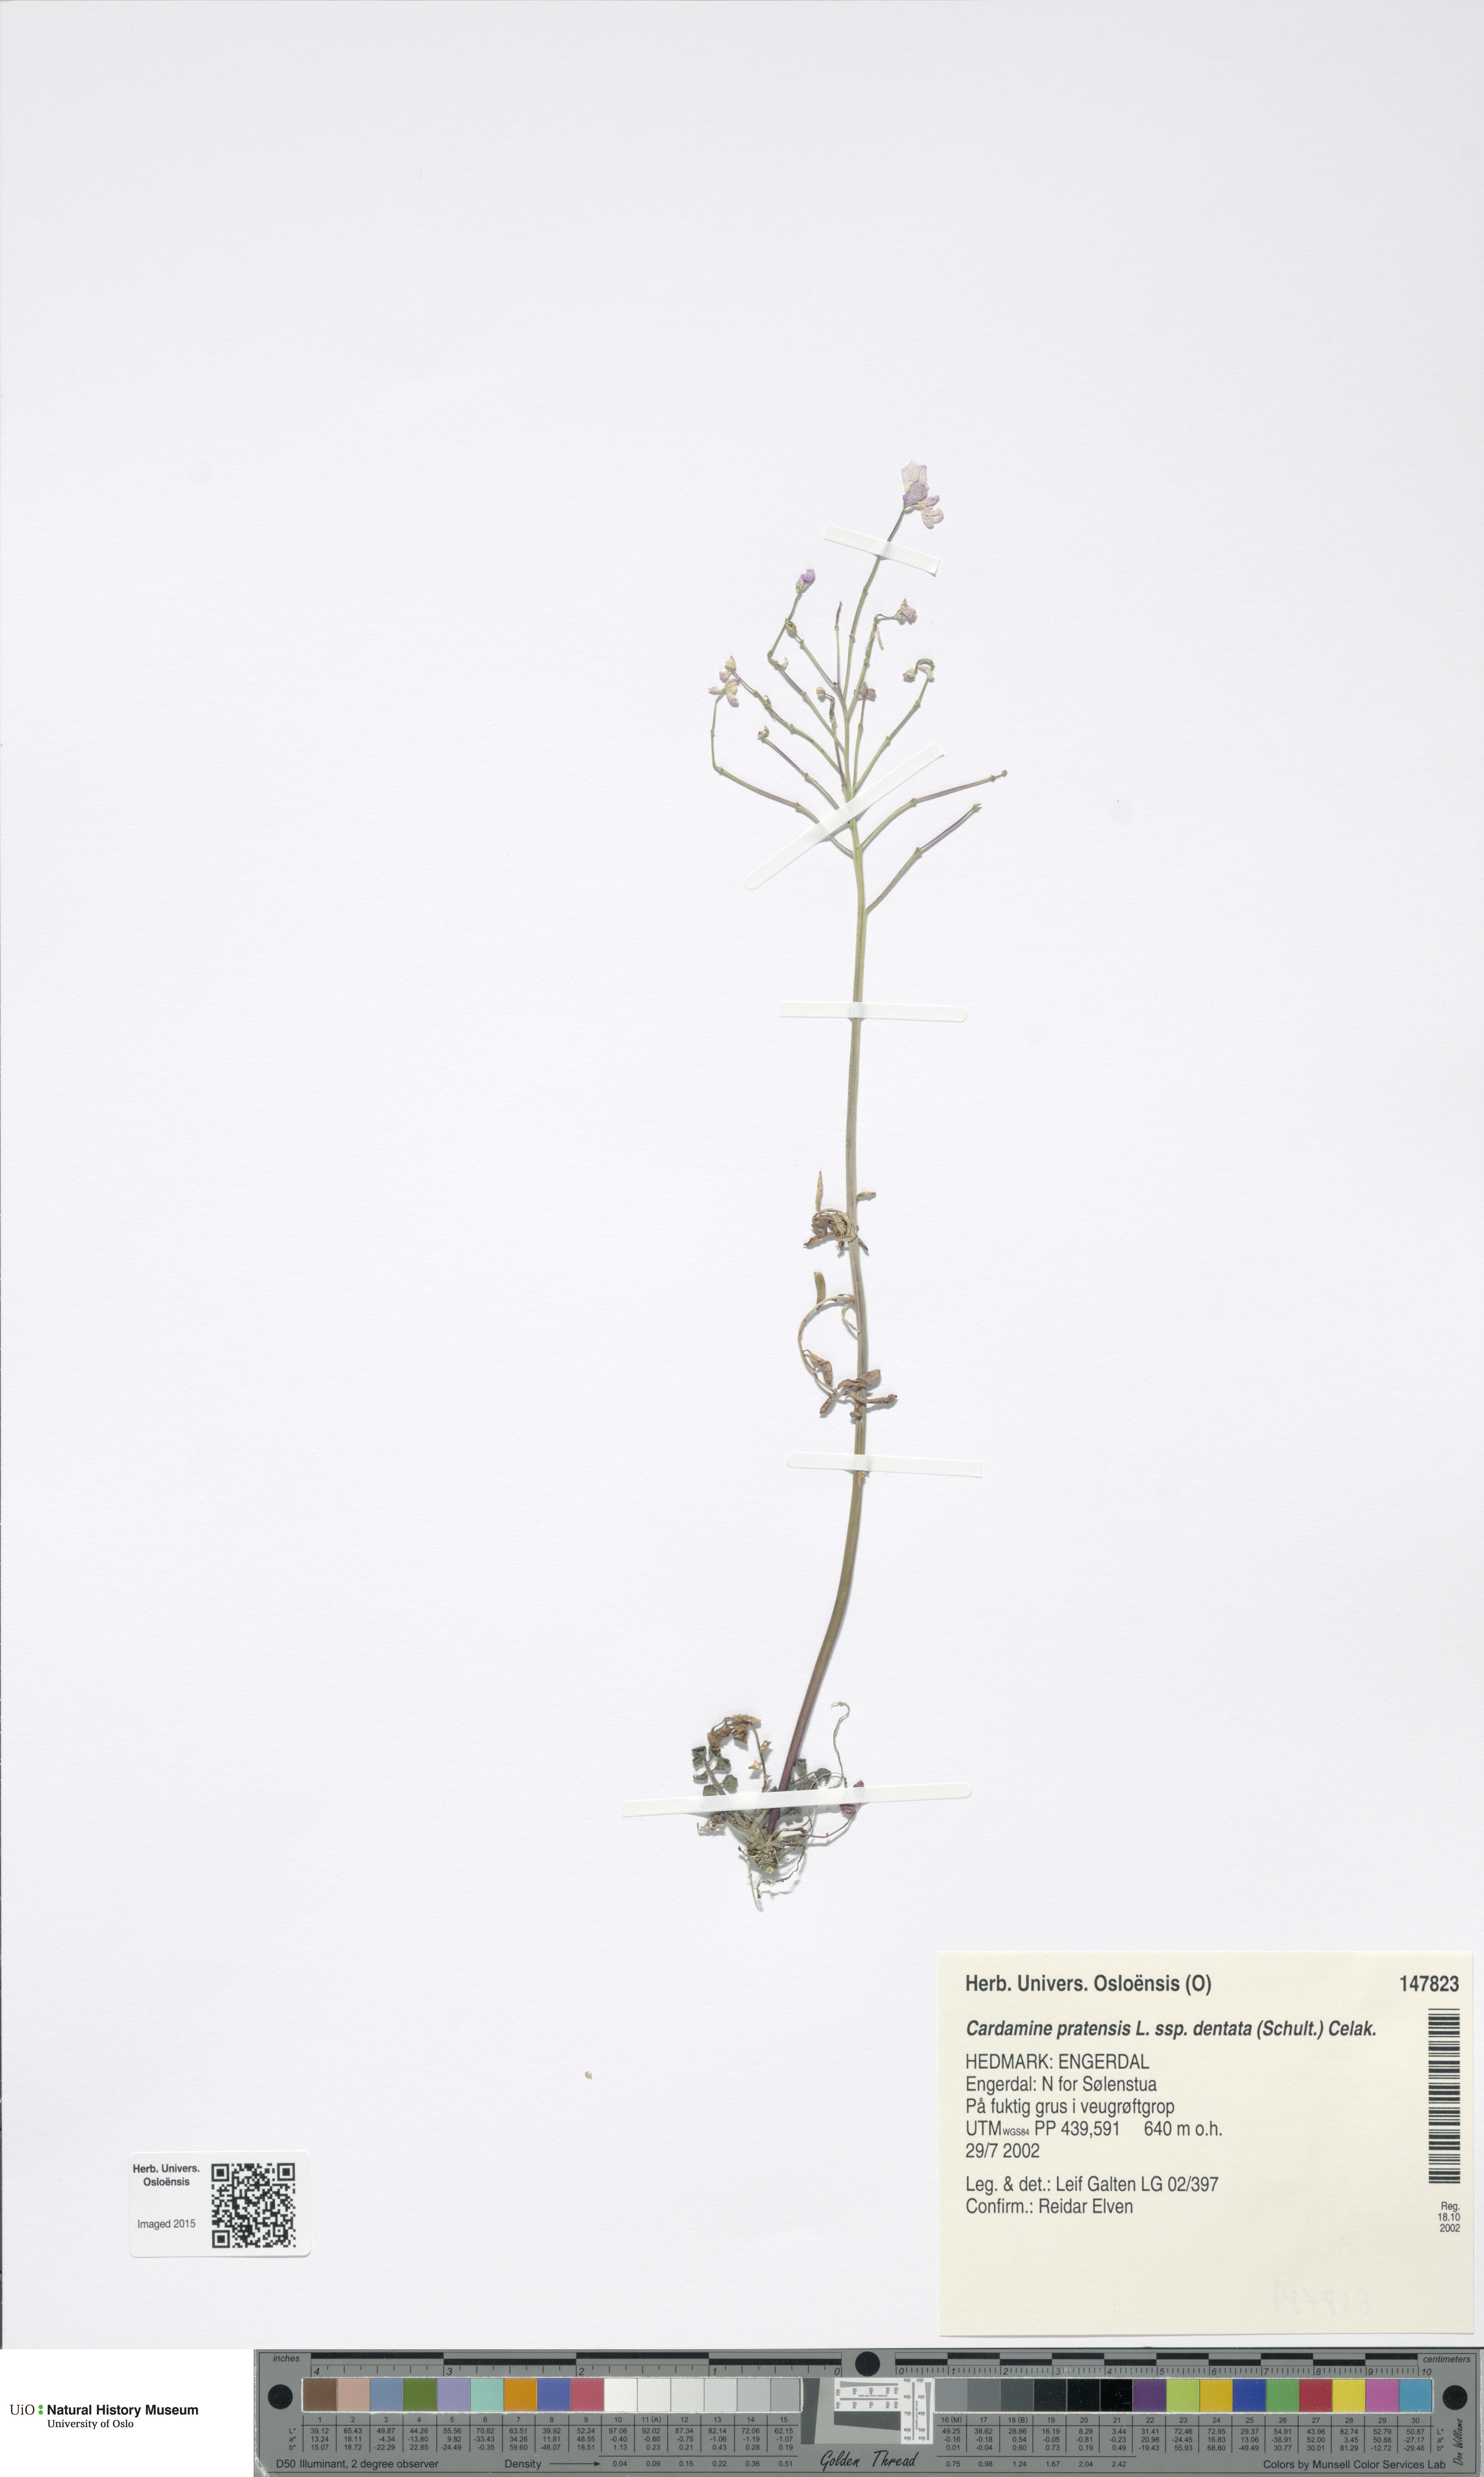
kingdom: Plantae
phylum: Tracheophyta
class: Magnoliopsida
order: Brassicales
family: Brassicaceae
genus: Cardamine
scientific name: Cardamine dentata
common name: Toothed bittercress
